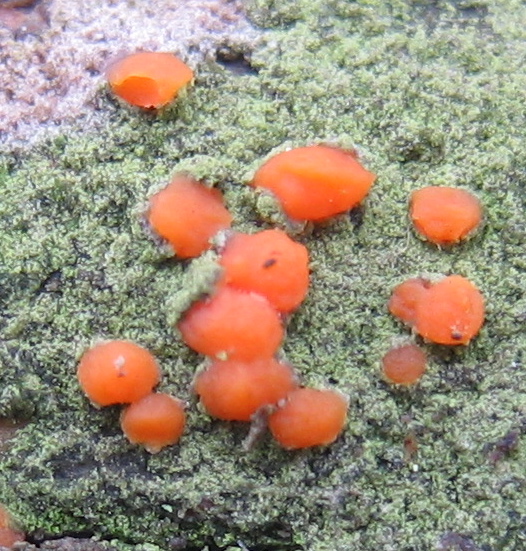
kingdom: Fungi
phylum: Basidiomycota
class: Dacrymycetes
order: Dacrymycetales
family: Dacrymycetaceae
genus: Dacrymyces
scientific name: Dacrymyces stillatus
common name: almindelig tåresvamp
